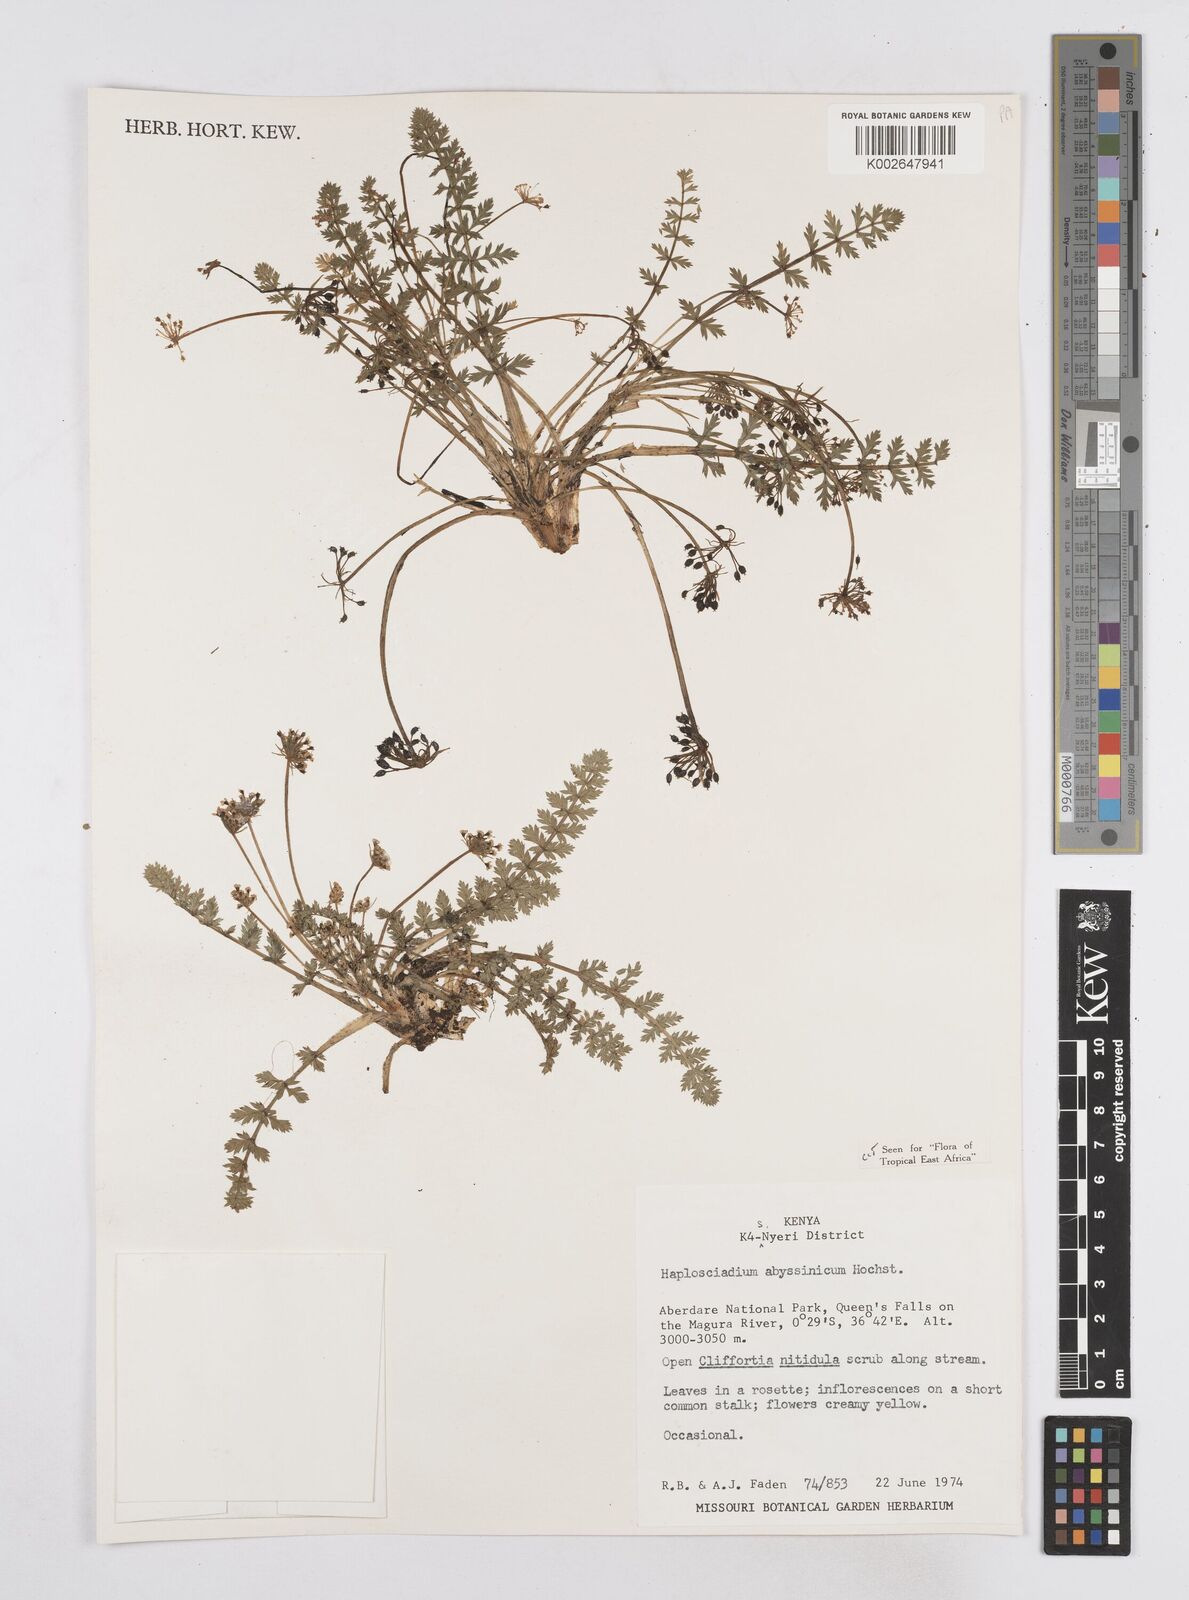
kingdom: Plantae
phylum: Tracheophyta
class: Magnoliopsida
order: Apiales
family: Apiaceae
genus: Haplosciadium
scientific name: Haplosciadium abyssinicum
